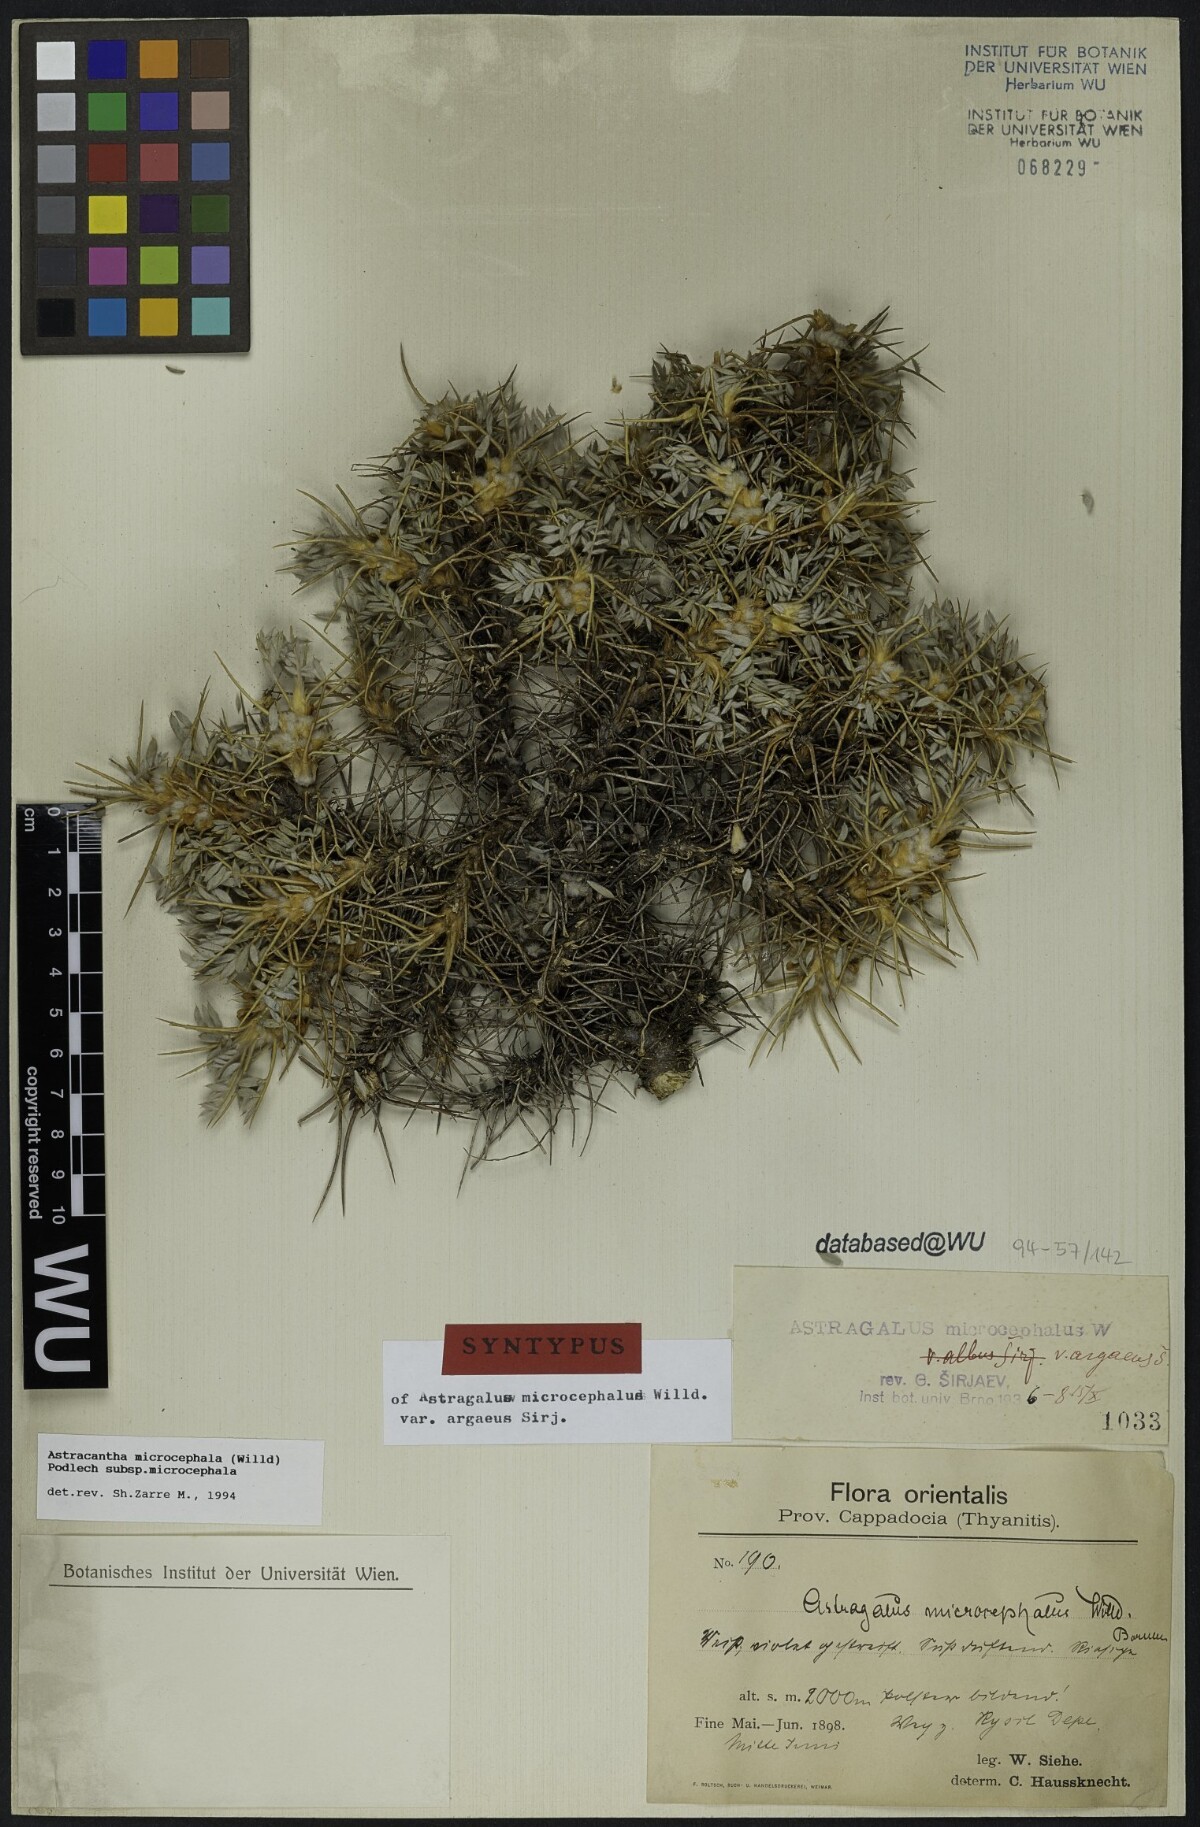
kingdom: Plantae
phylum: Tracheophyta
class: Magnoliopsida
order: Fabales
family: Fabaceae
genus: Astragalus
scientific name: Astragalus microcephalus
